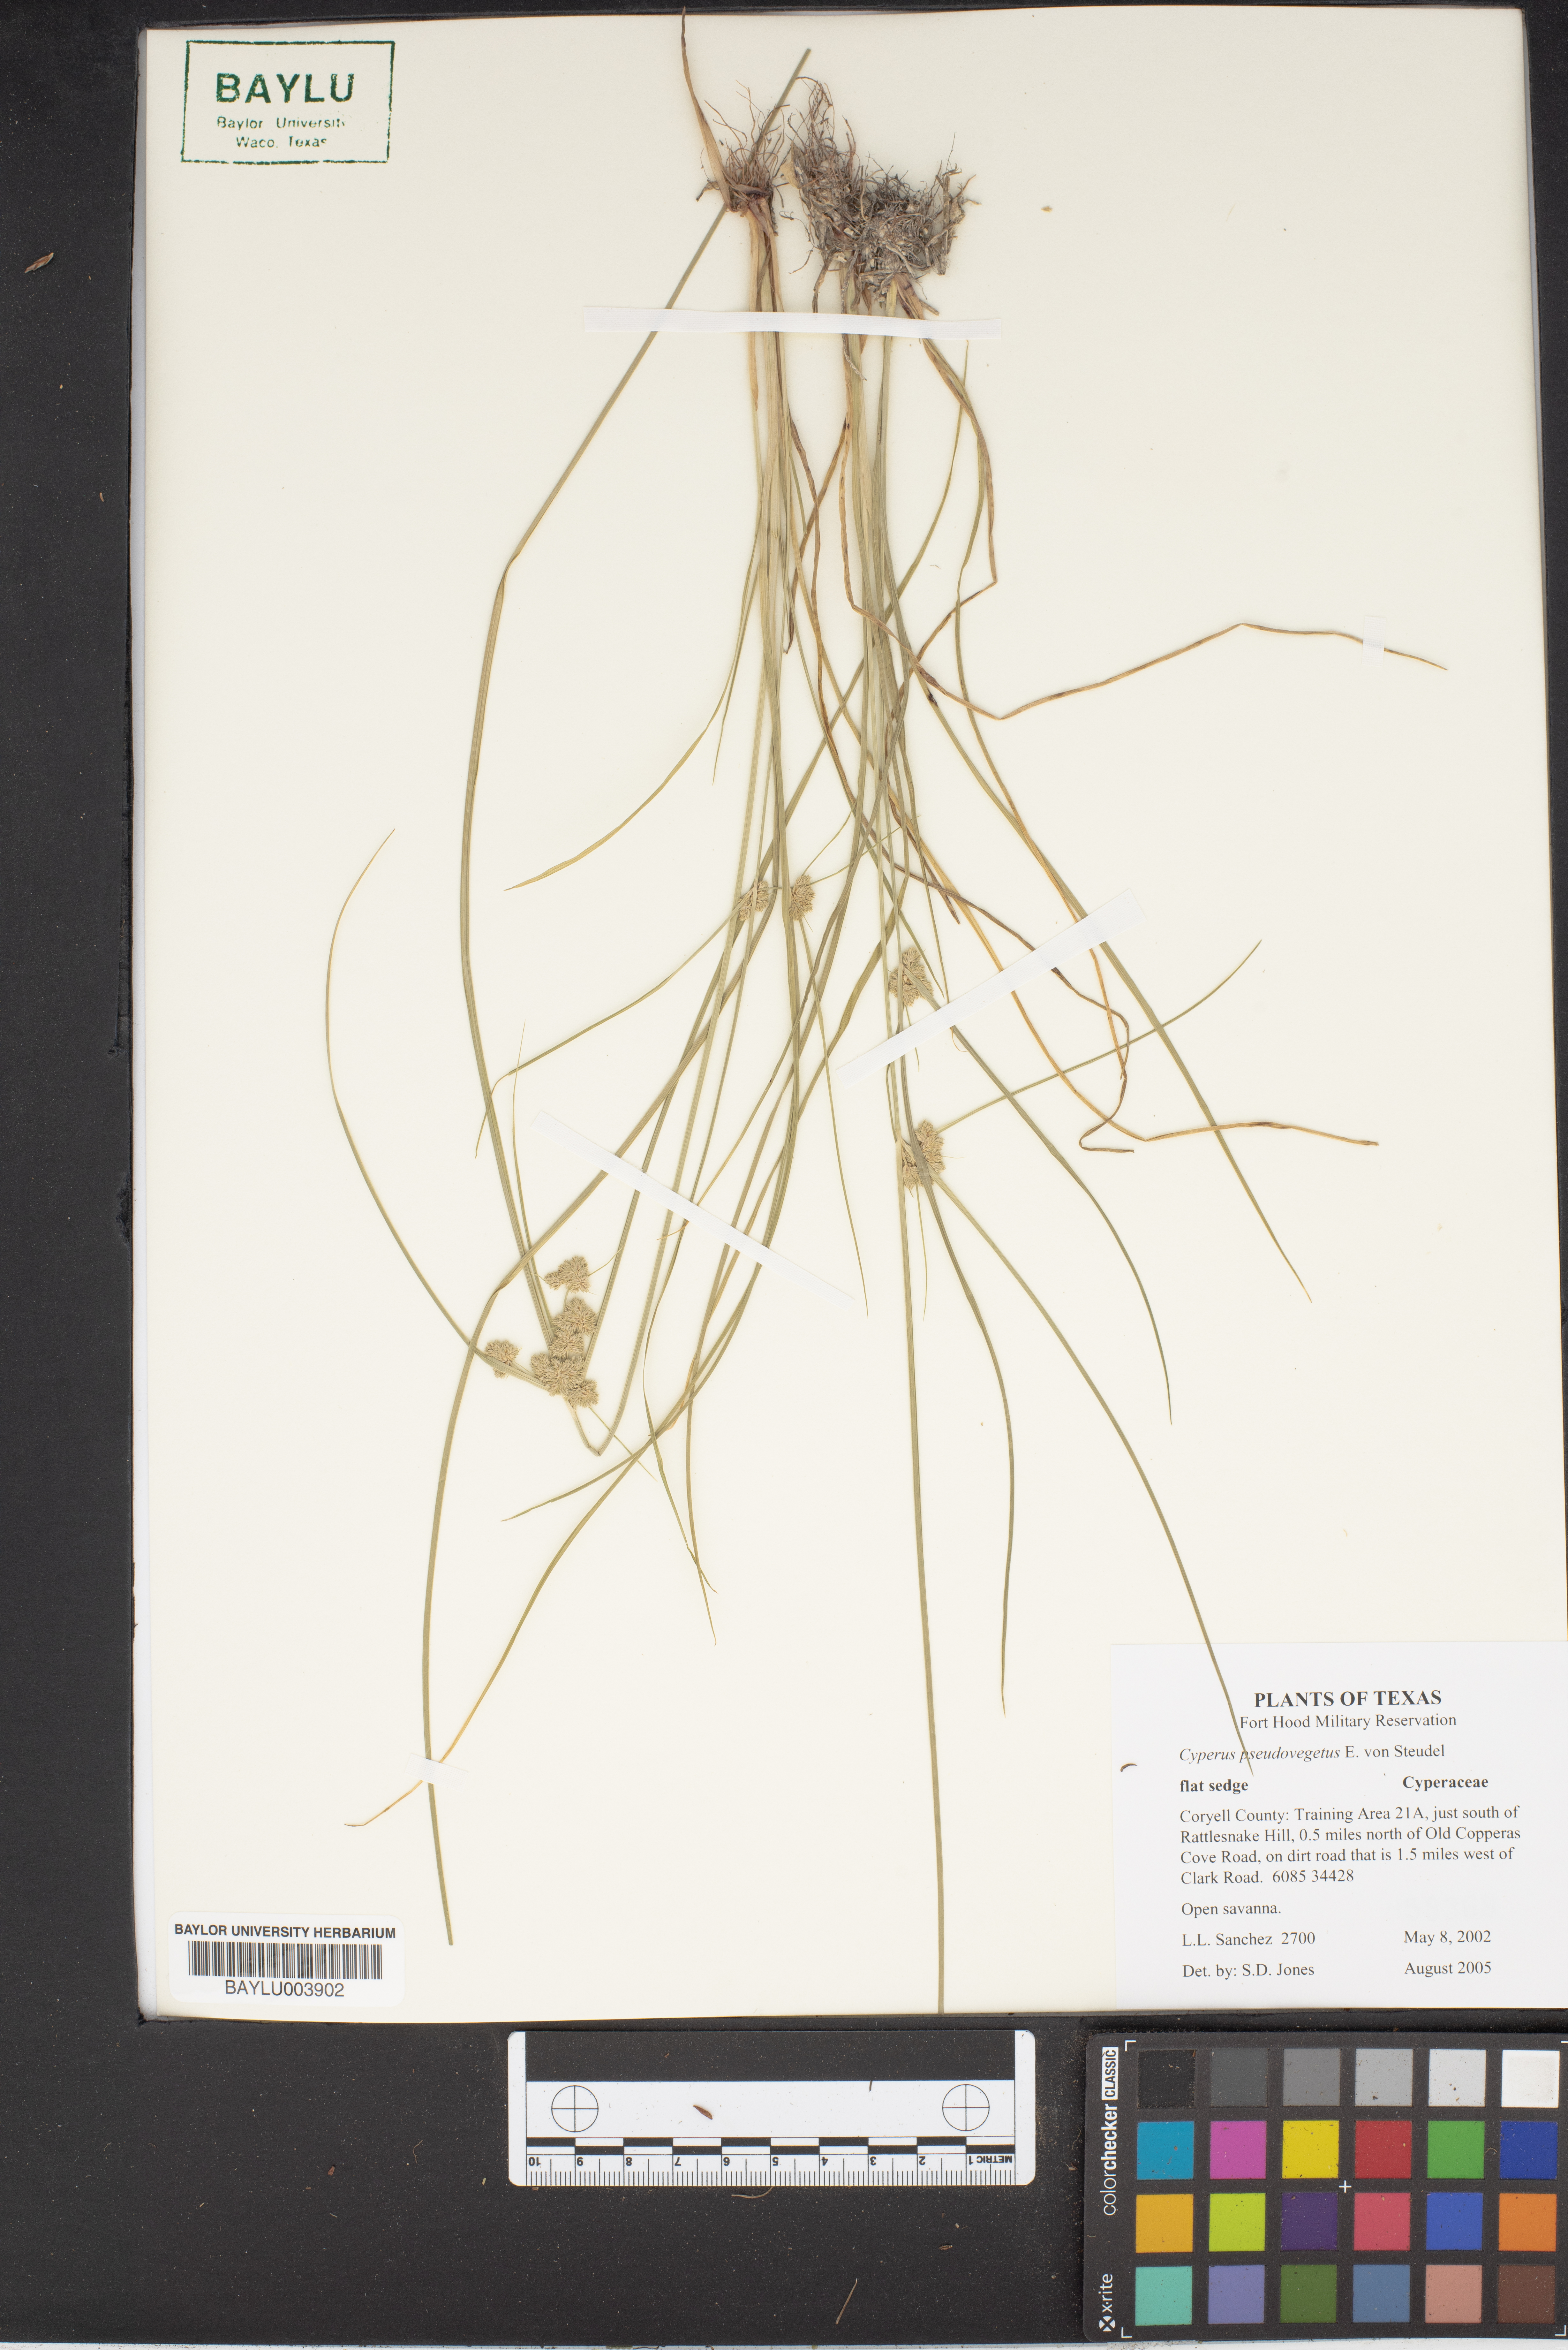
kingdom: Plantae
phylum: Tracheophyta
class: Liliopsida
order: Poales
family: Cyperaceae
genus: Cyperus
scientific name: Cyperus pseudovegetus
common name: Marsh flat sedge
